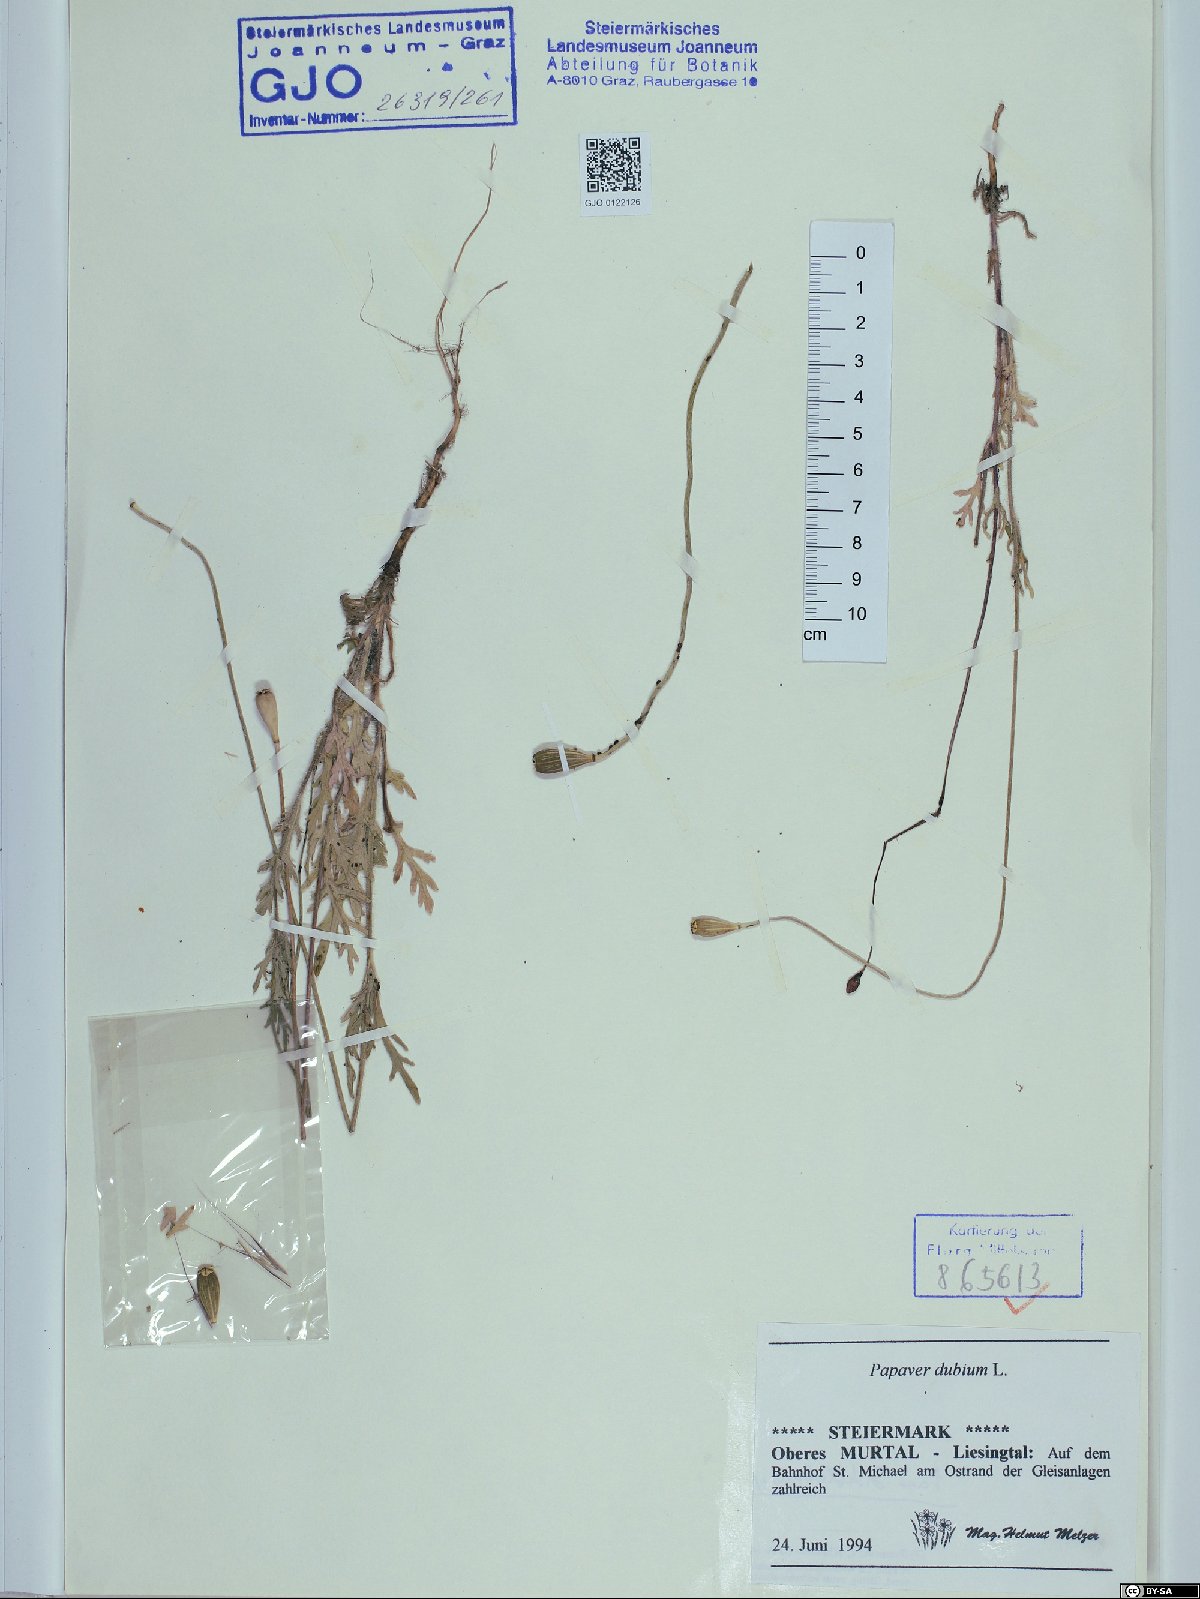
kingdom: Plantae
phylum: Tracheophyta
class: Magnoliopsida
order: Ranunculales
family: Papaveraceae
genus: Papaver
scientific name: Papaver dubium
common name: Long-headed poppy
